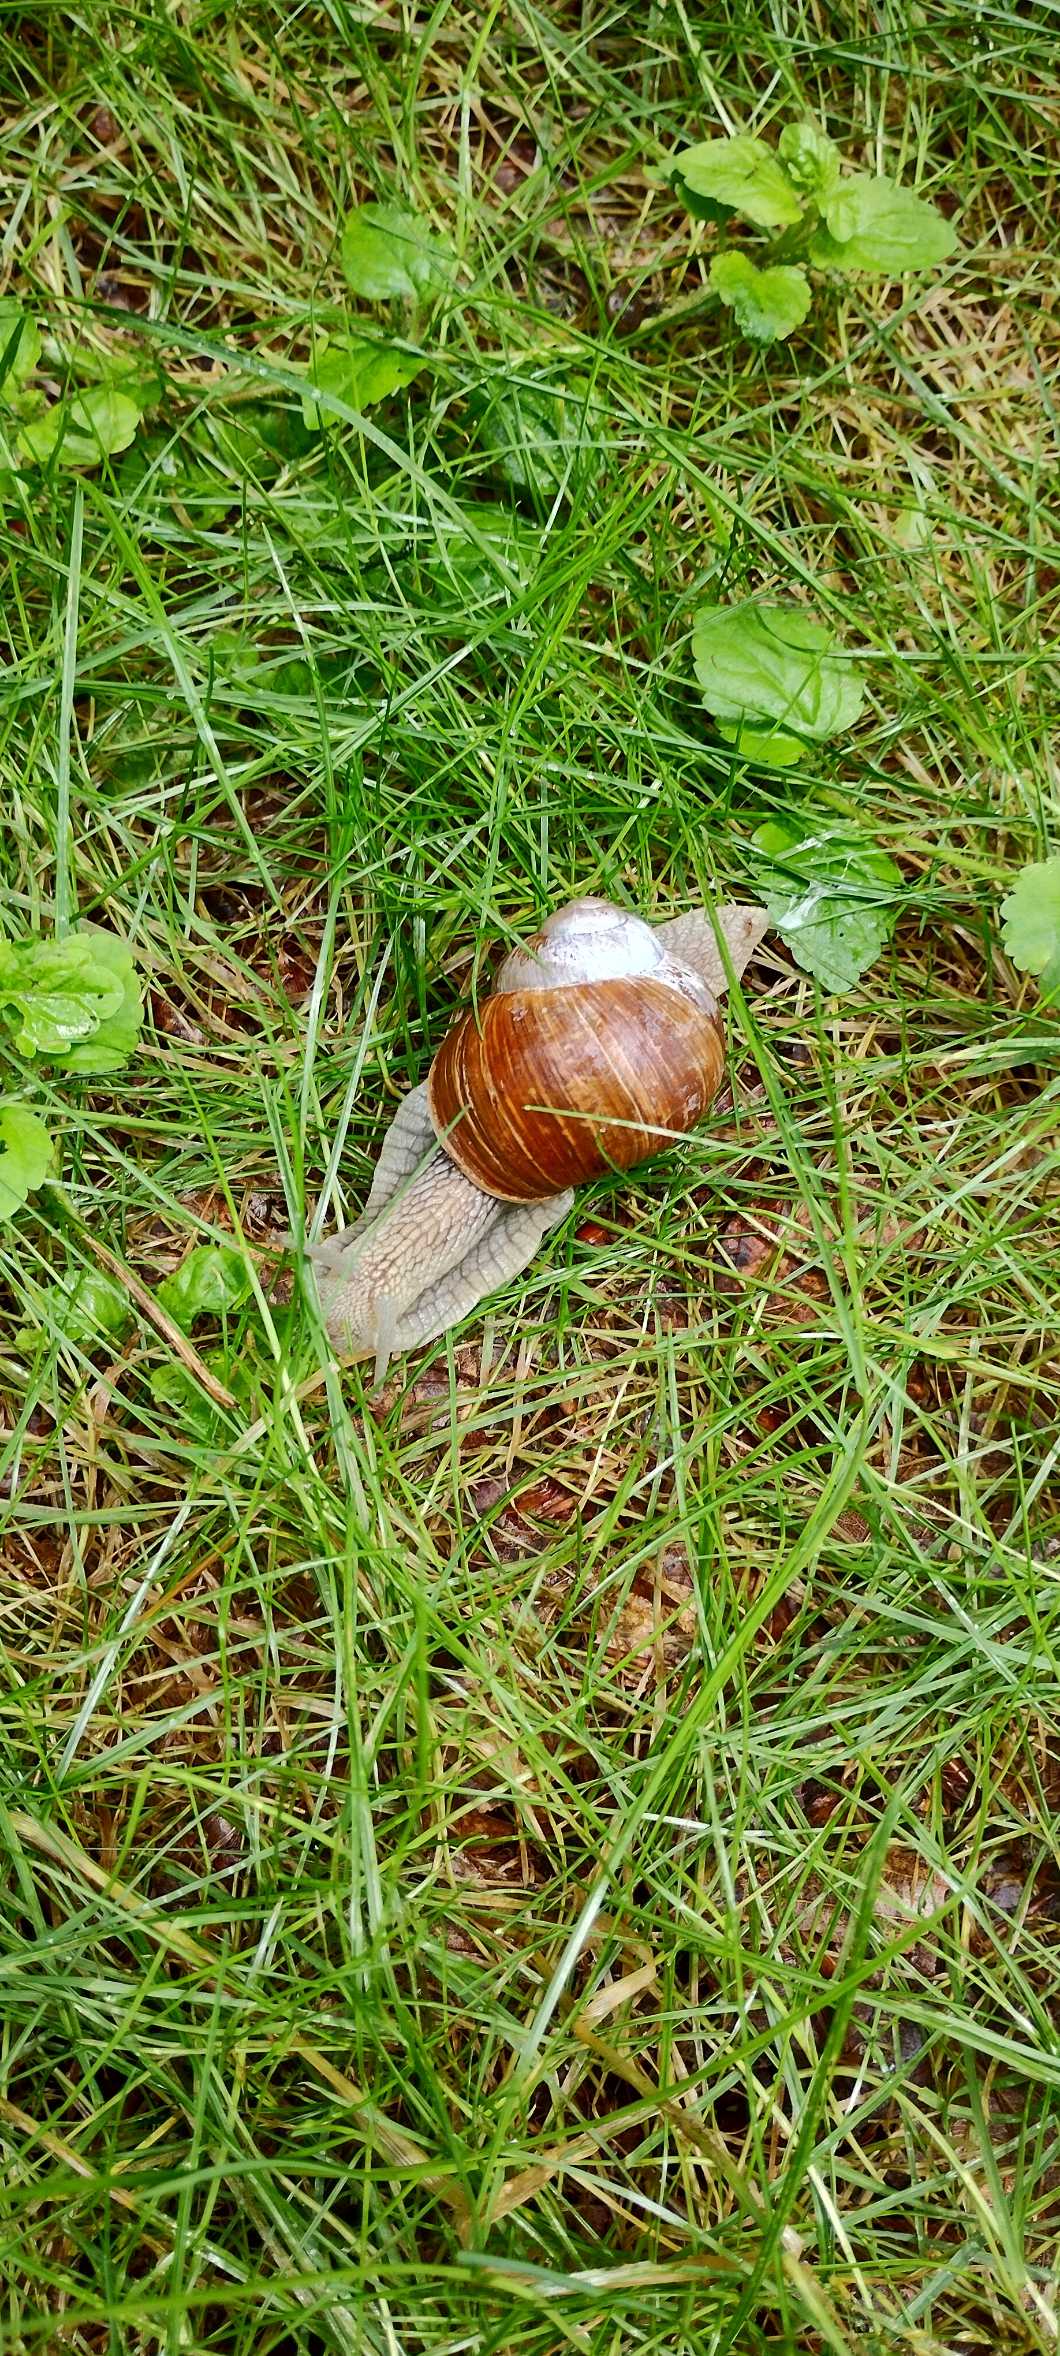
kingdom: Animalia
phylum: Mollusca
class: Gastropoda
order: Stylommatophora
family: Helicidae
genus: Helix
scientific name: Helix pomatia
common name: Vinbjergsnegl
